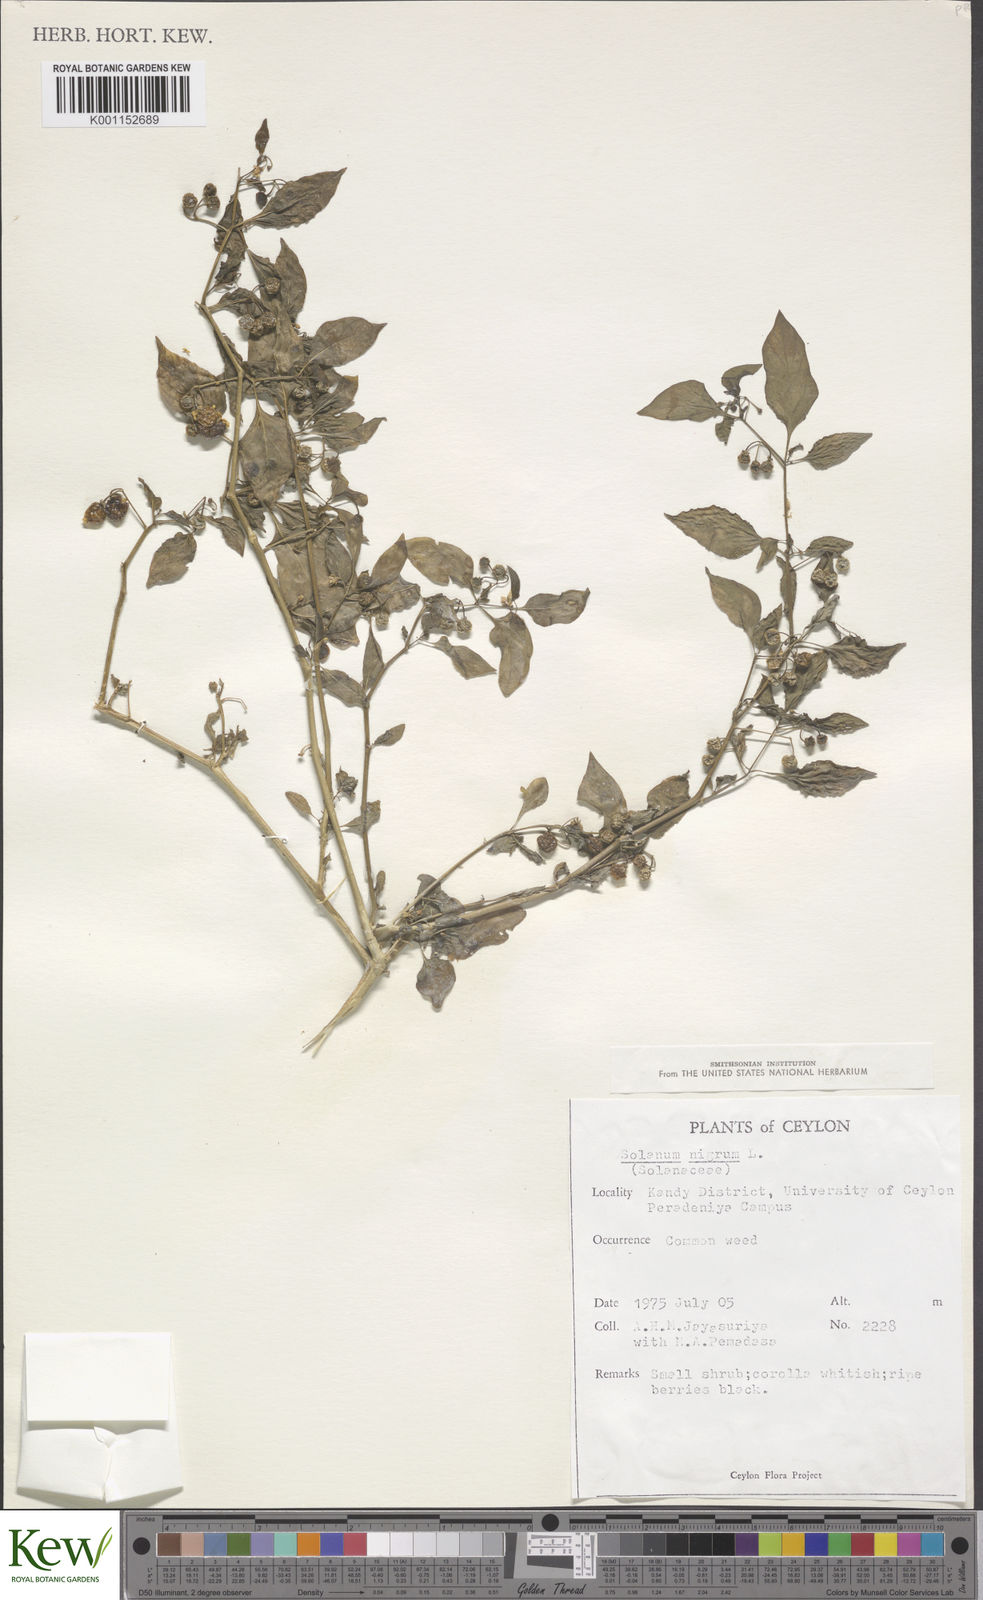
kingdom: Plantae
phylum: Tracheophyta
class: Magnoliopsida
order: Solanales
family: Solanaceae
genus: Solanum
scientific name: Solanum nigrum
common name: Black nightshade
